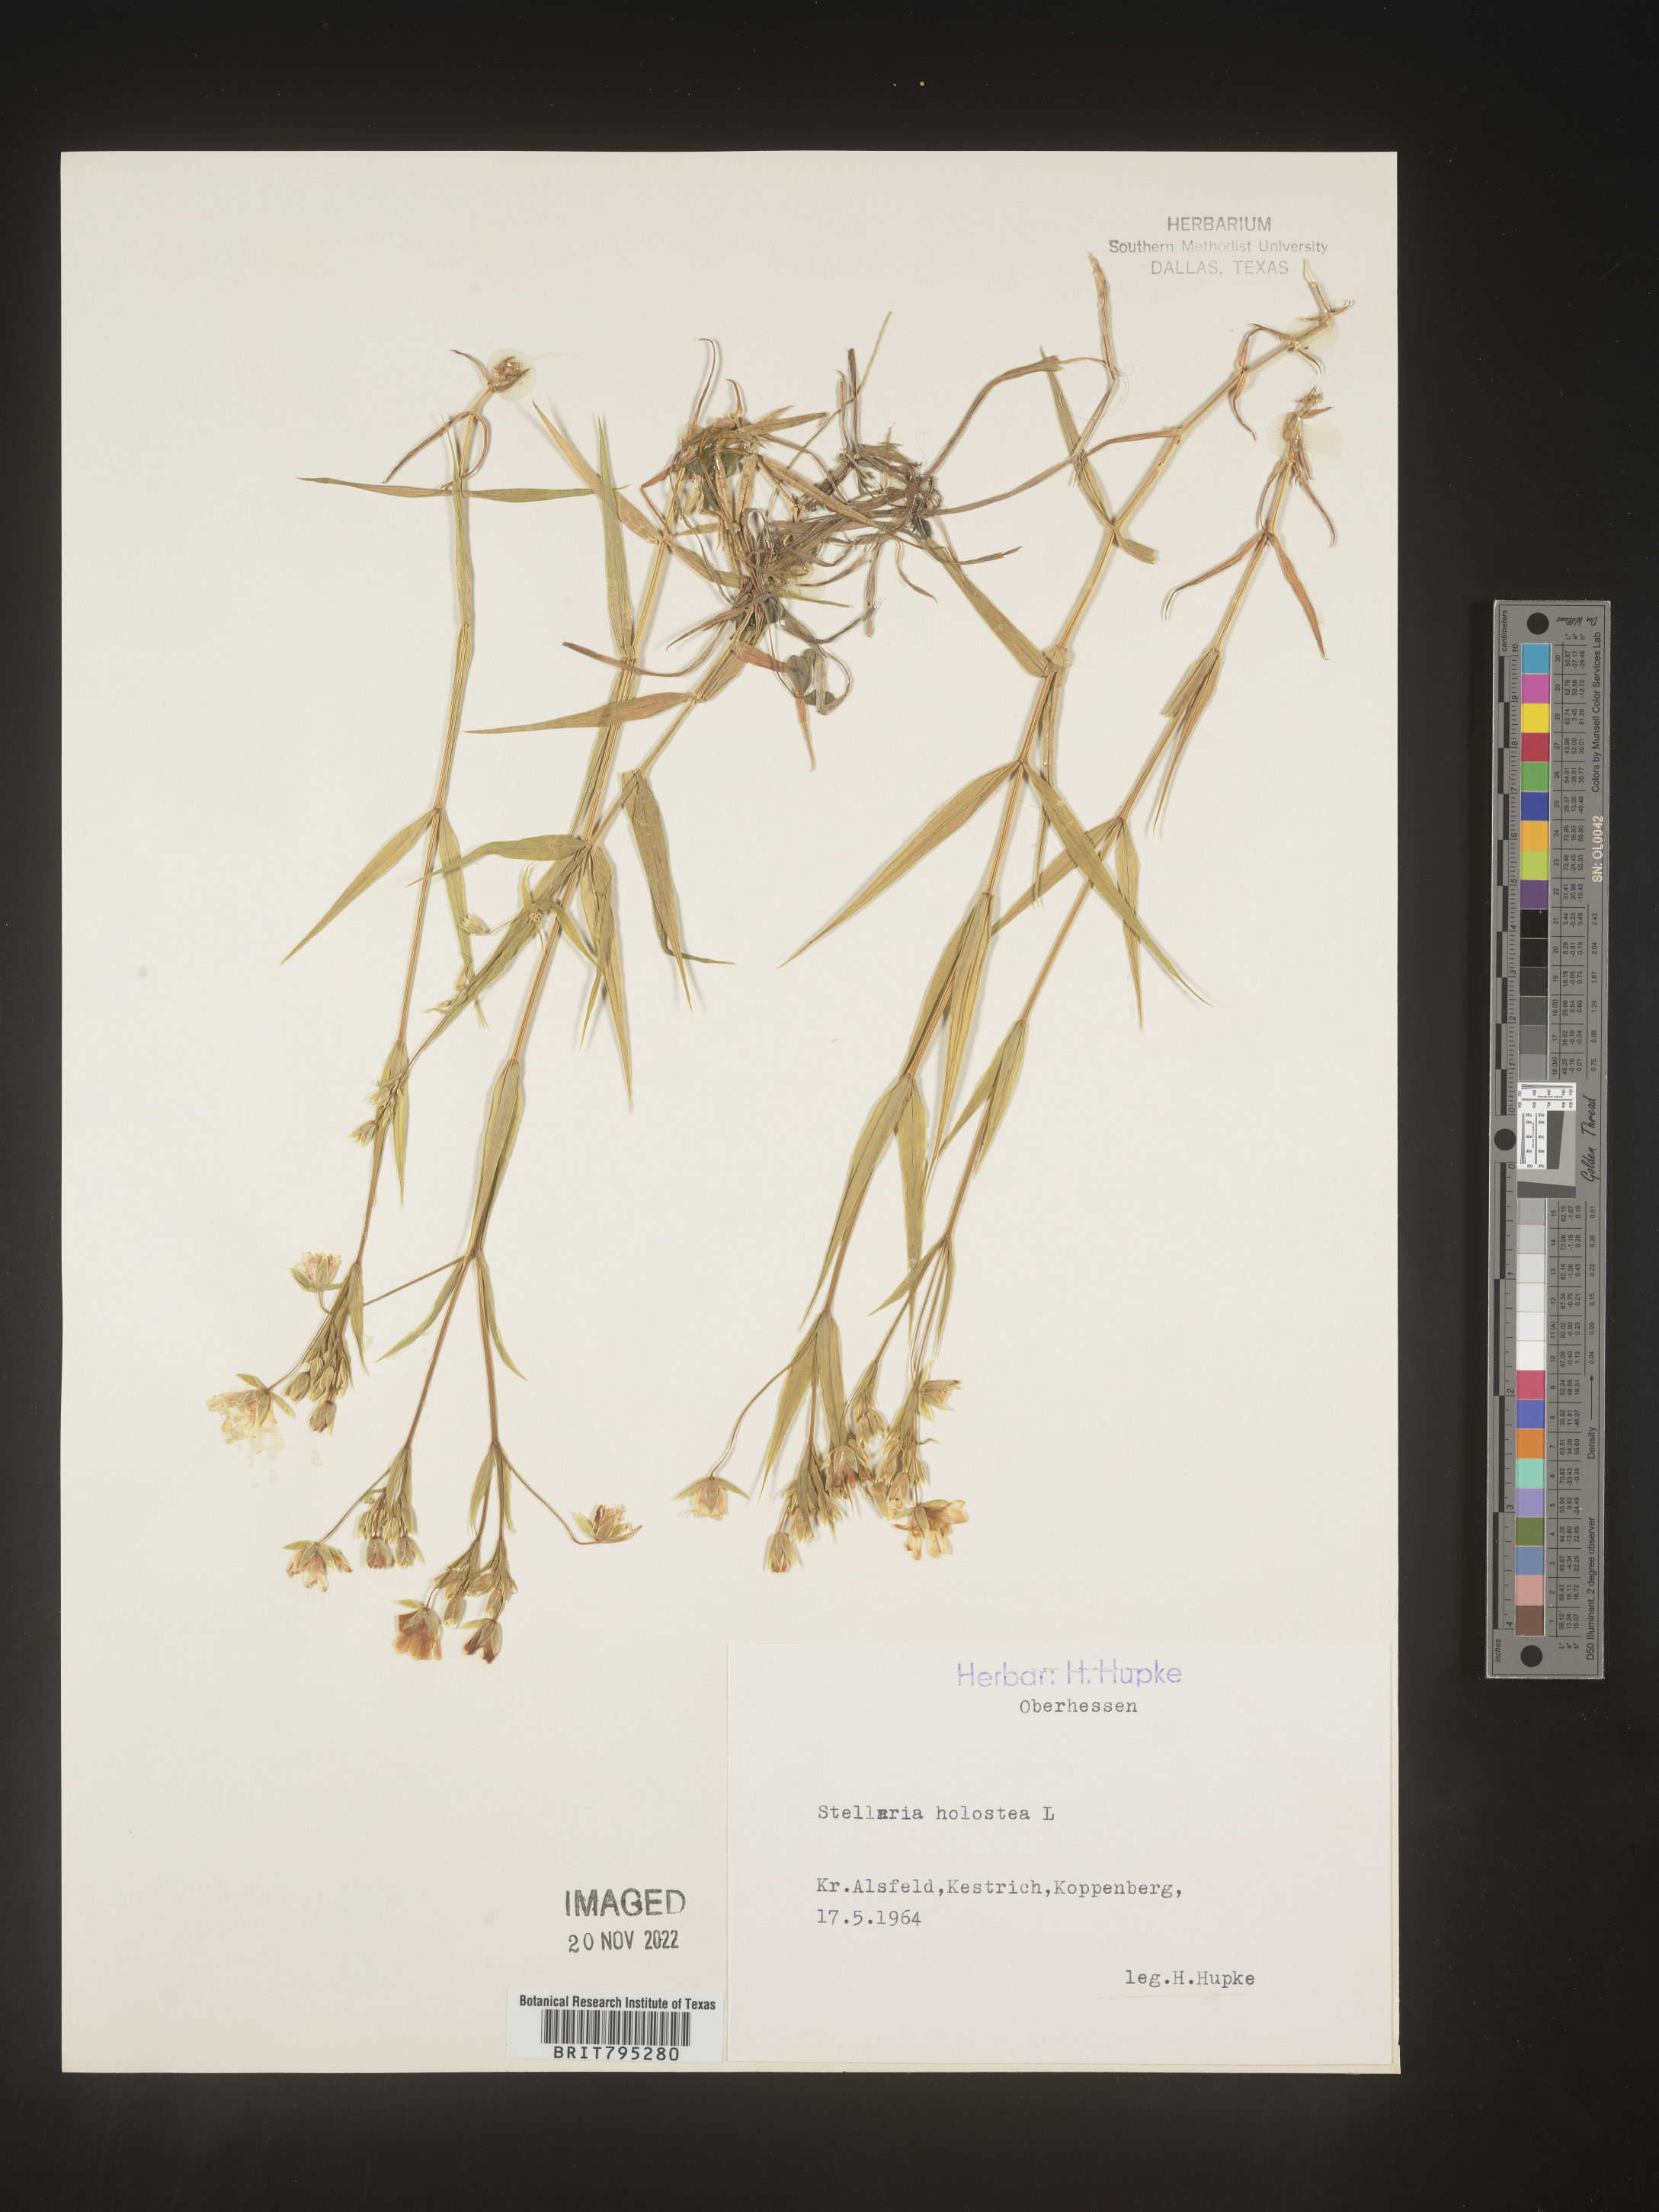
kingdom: Plantae
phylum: Tracheophyta
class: Magnoliopsida
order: Caryophyllales
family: Caryophyllaceae
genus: Stellaria
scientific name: Stellaria
